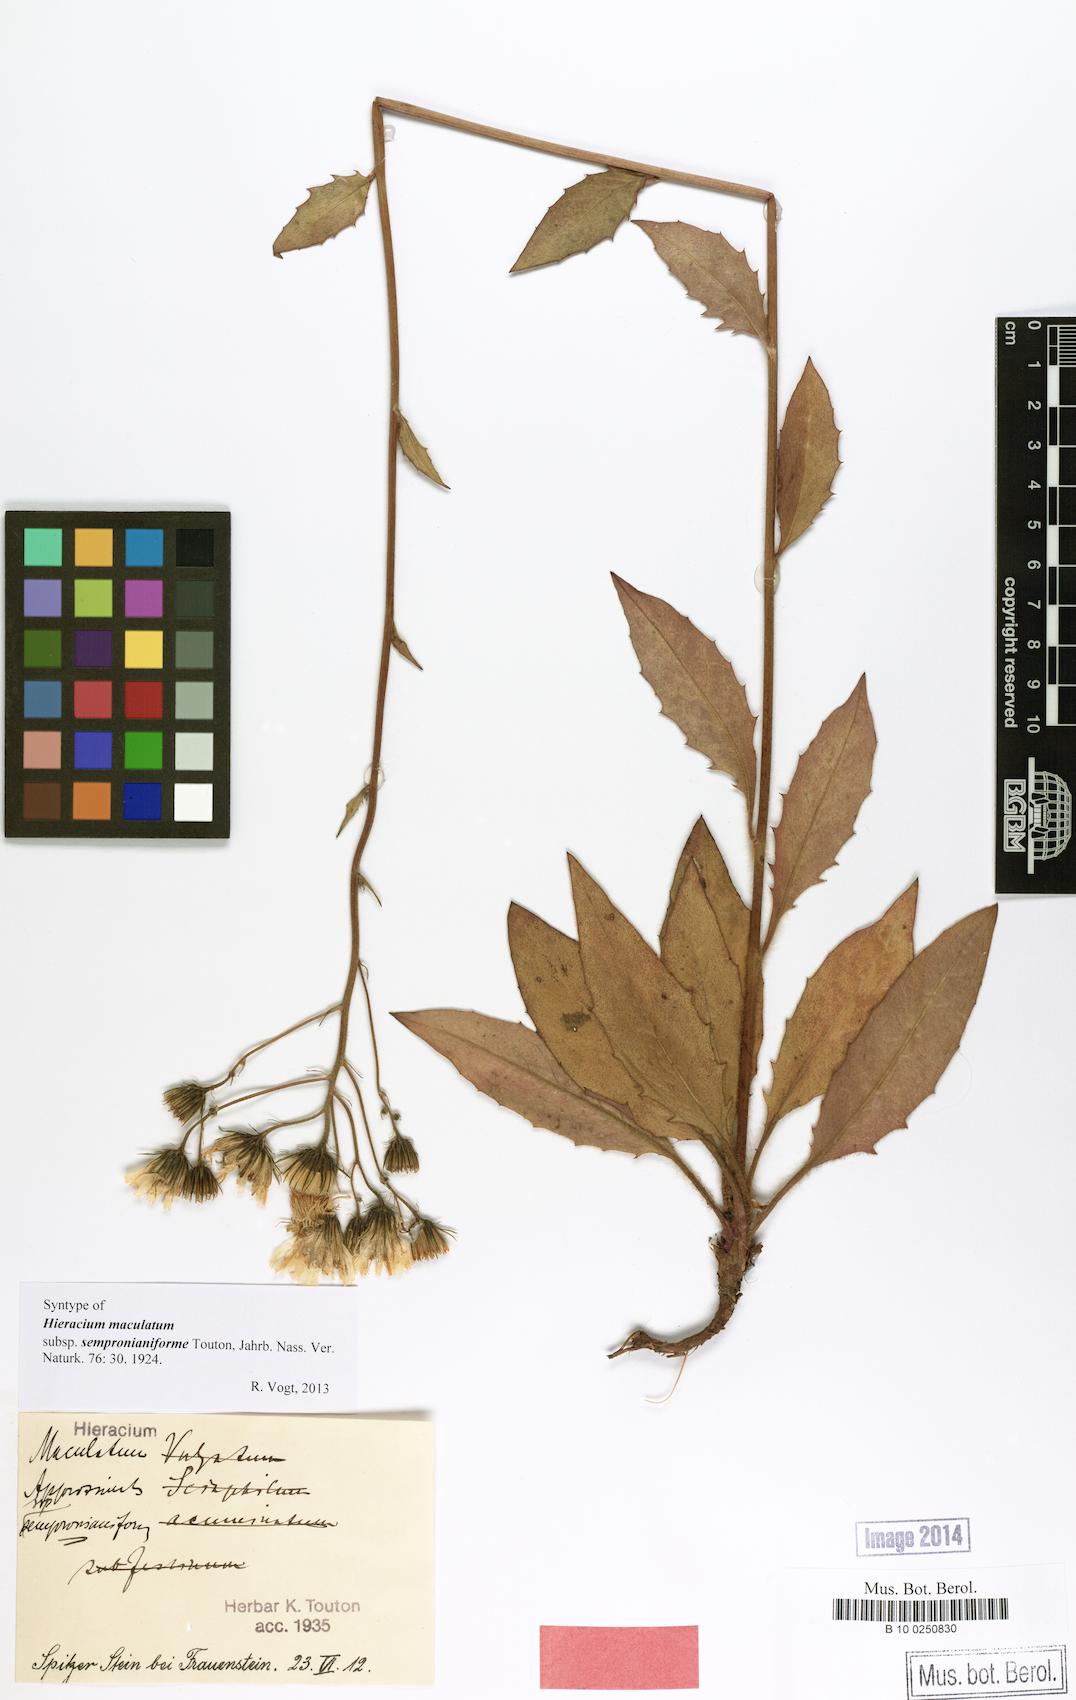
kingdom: Plantae
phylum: Tracheophyta
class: Magnoliopsida
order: Asterales
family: Asteraceae
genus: Hieracium
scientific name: Hieracium maculatum
